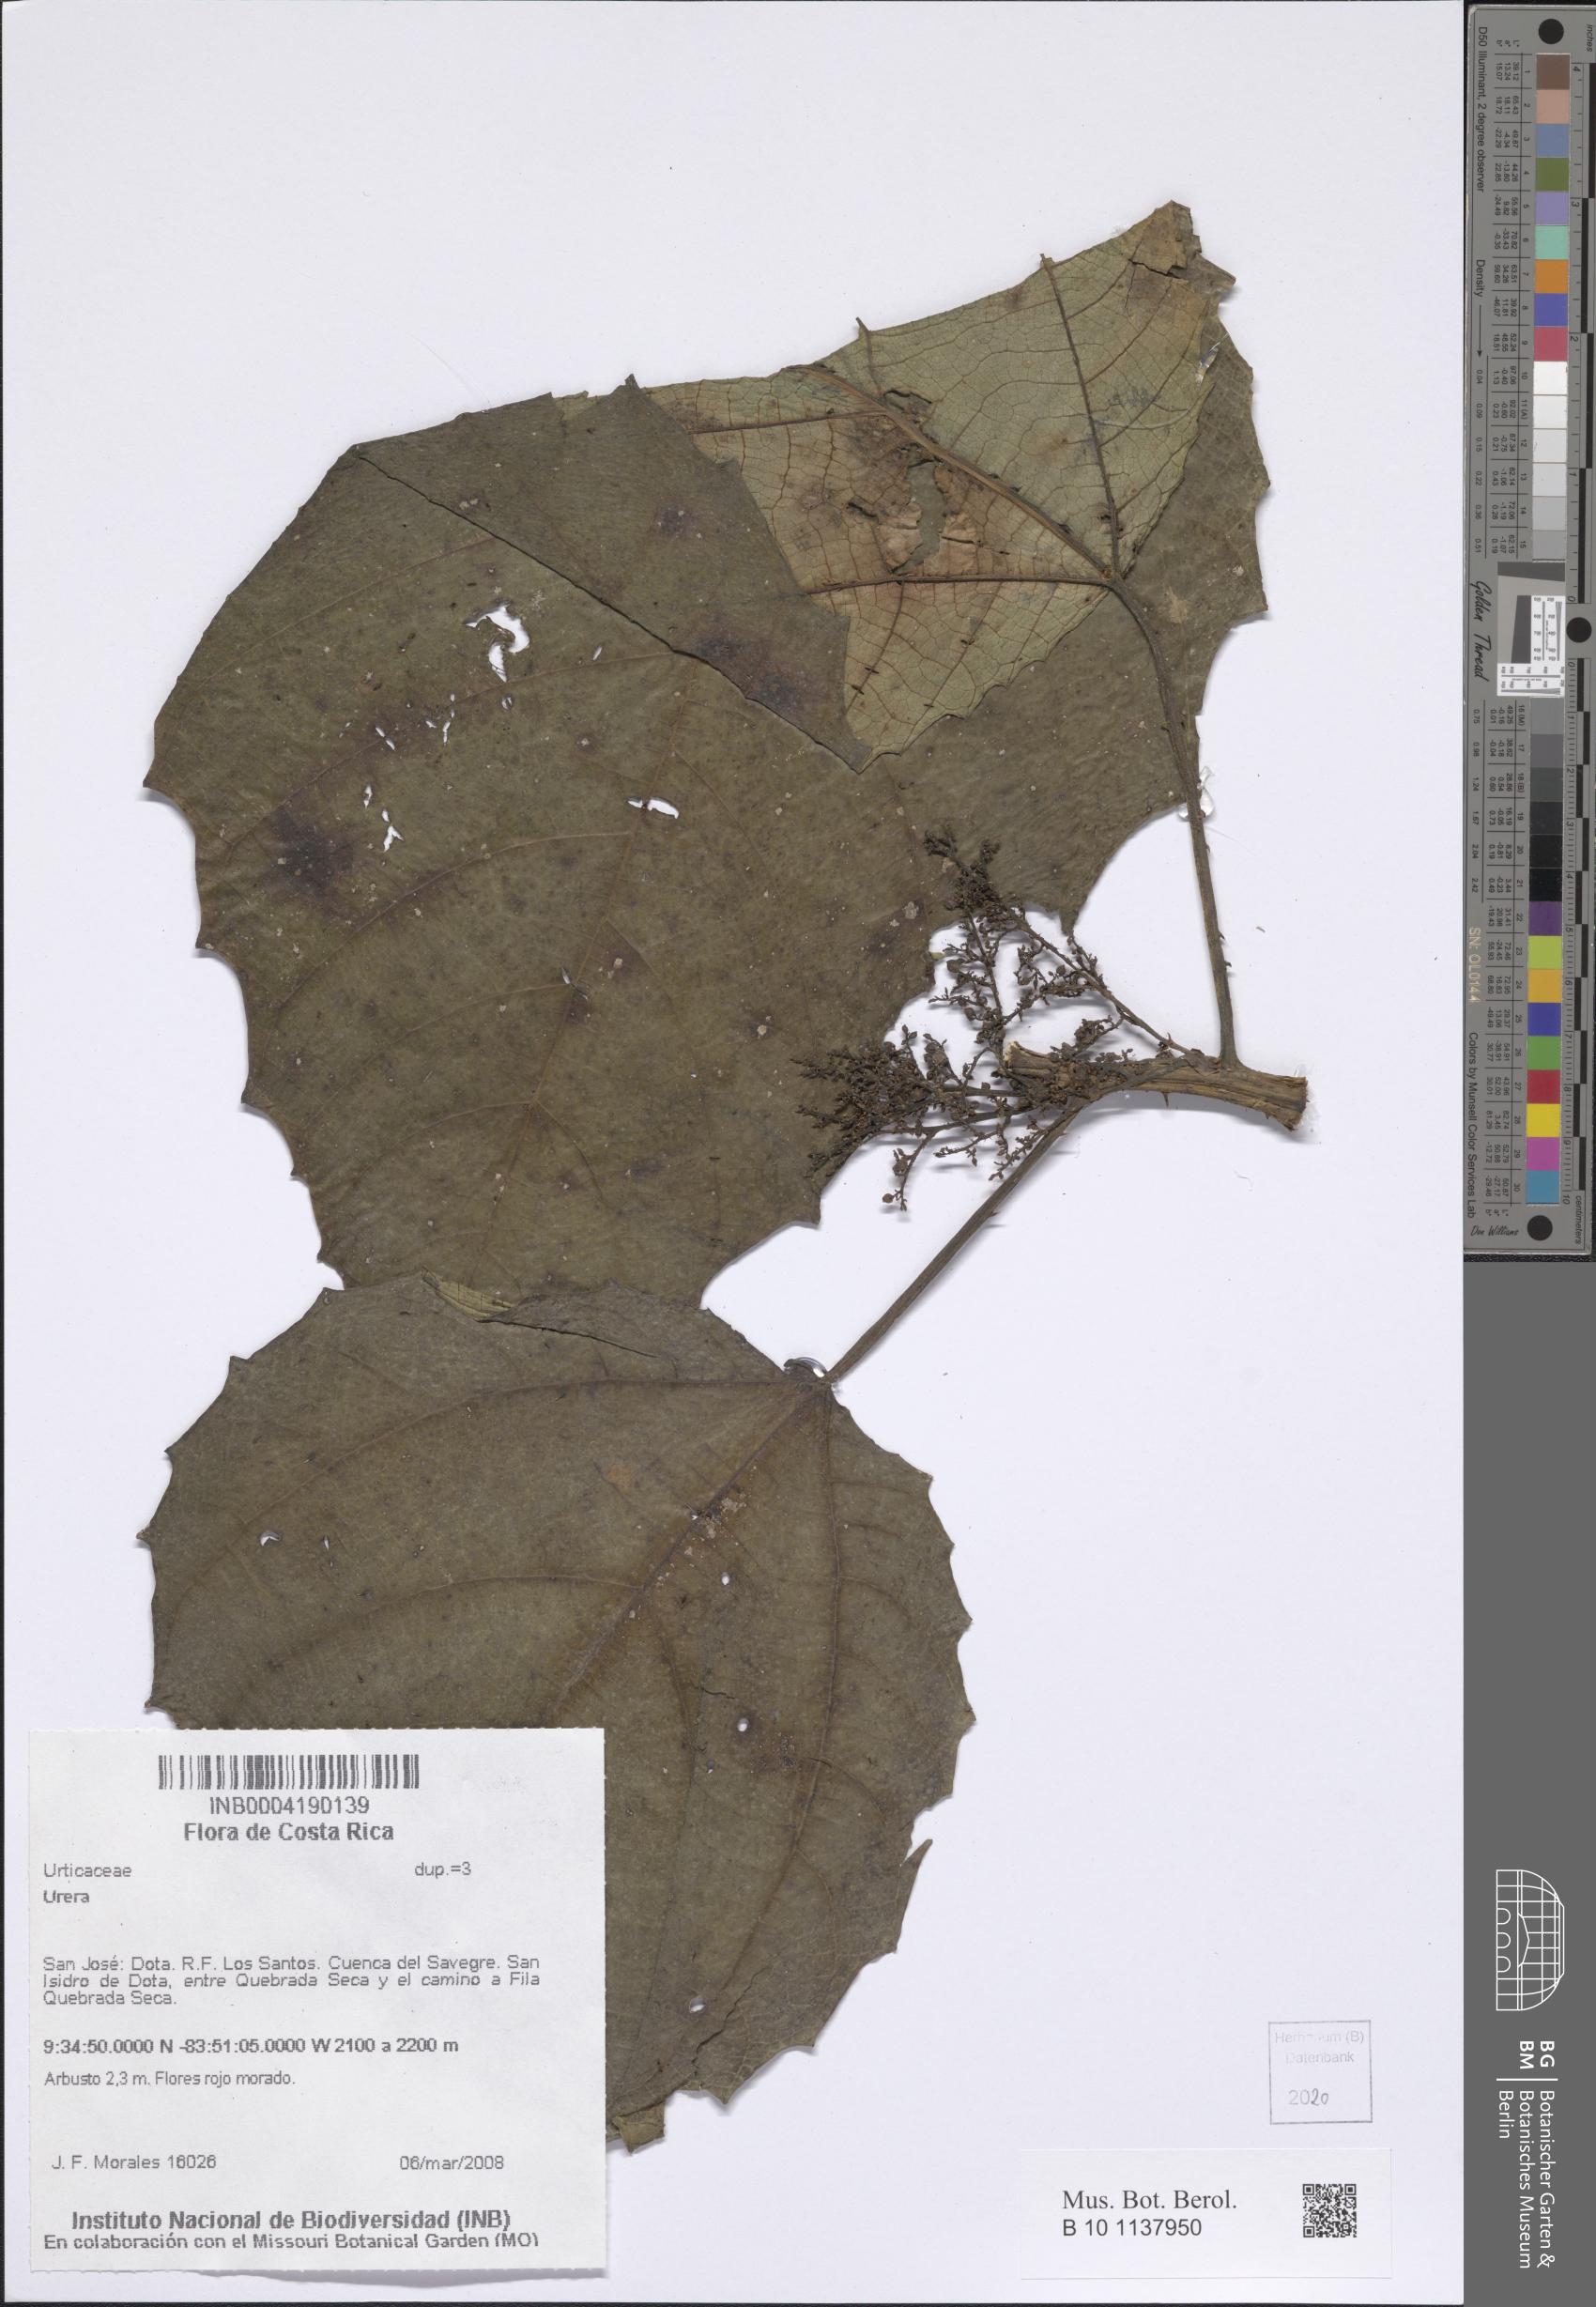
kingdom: Plantae
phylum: Tracheophyta
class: Magnoliopsida
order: Rosales
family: Urticaceae
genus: Urera
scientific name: Urera
